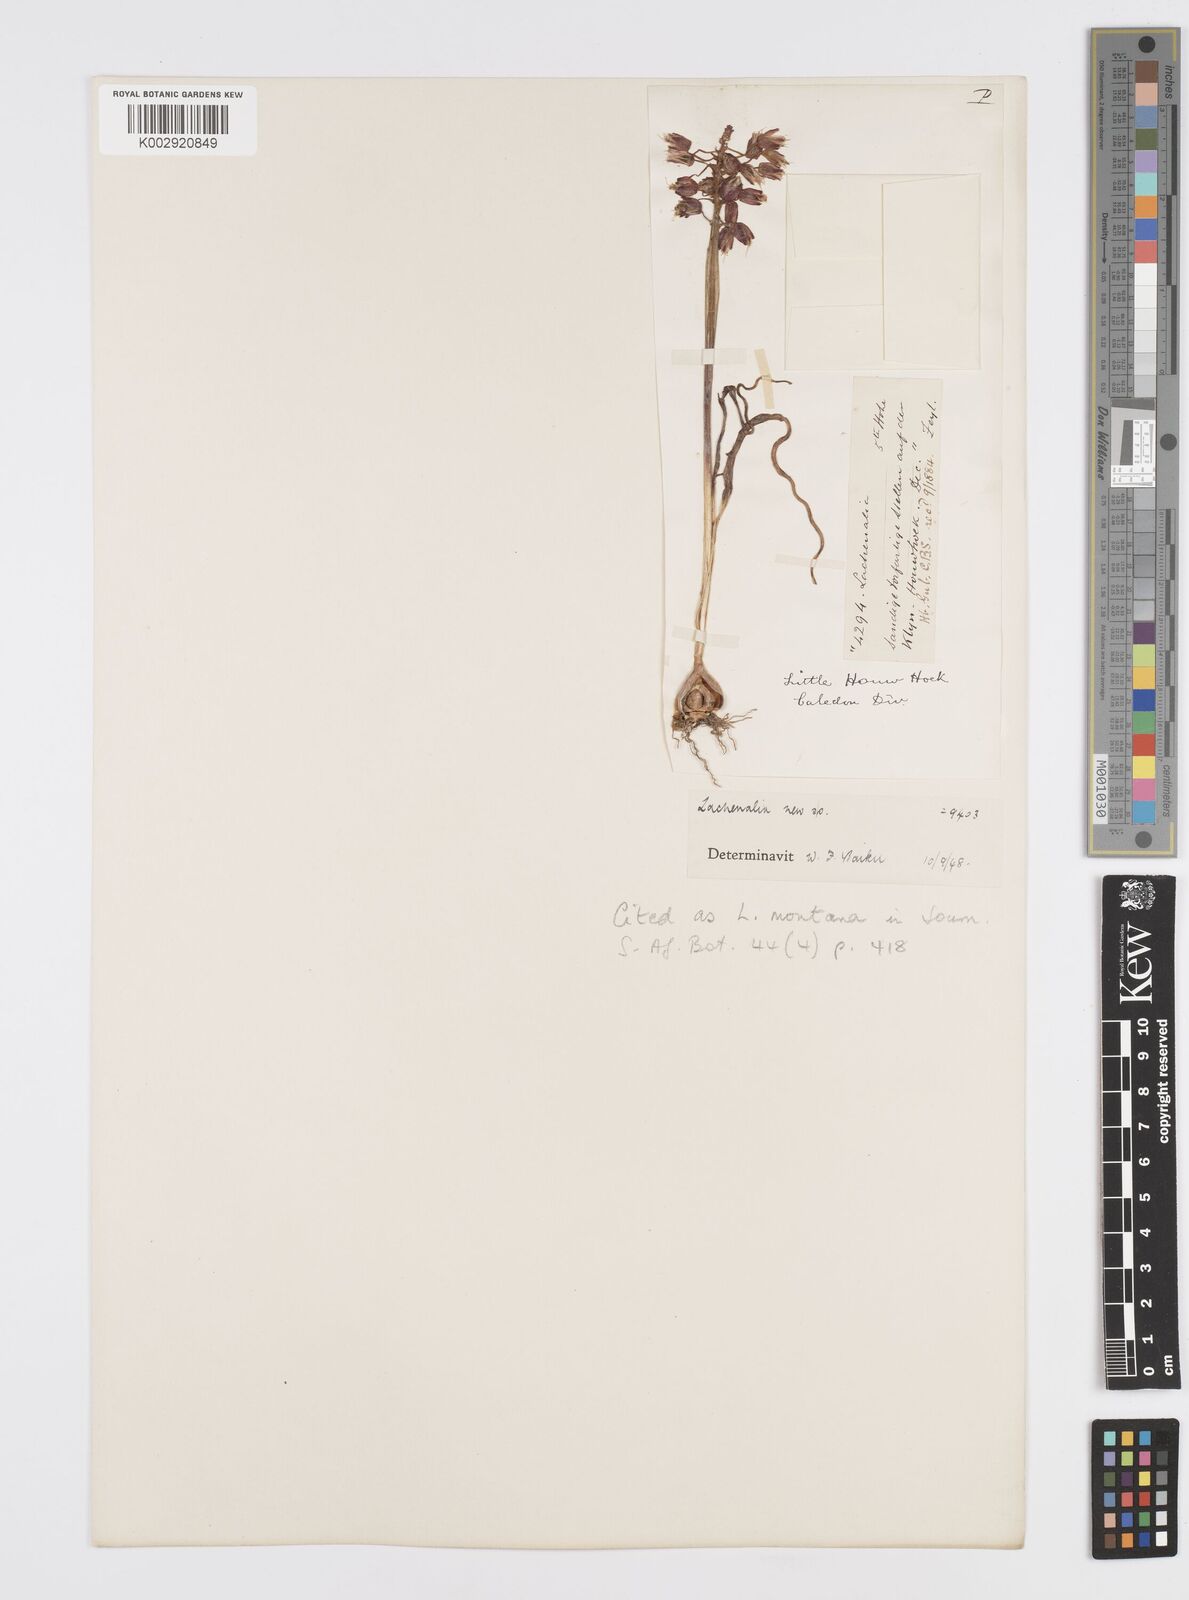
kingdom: Plantae
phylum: Tracheophyta
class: Liliopsida
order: Asparagales
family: Asparagaceae
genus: Lachenalia
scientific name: Lachenalia montana
